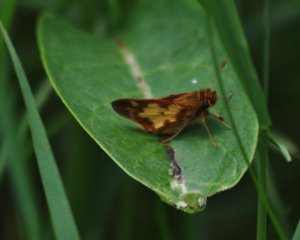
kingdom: Animalia
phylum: Arthropoda
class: Insecta
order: Lepidoptera
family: Hesperiidae
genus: Polites
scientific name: Polites coras
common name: Peck's Skipper
